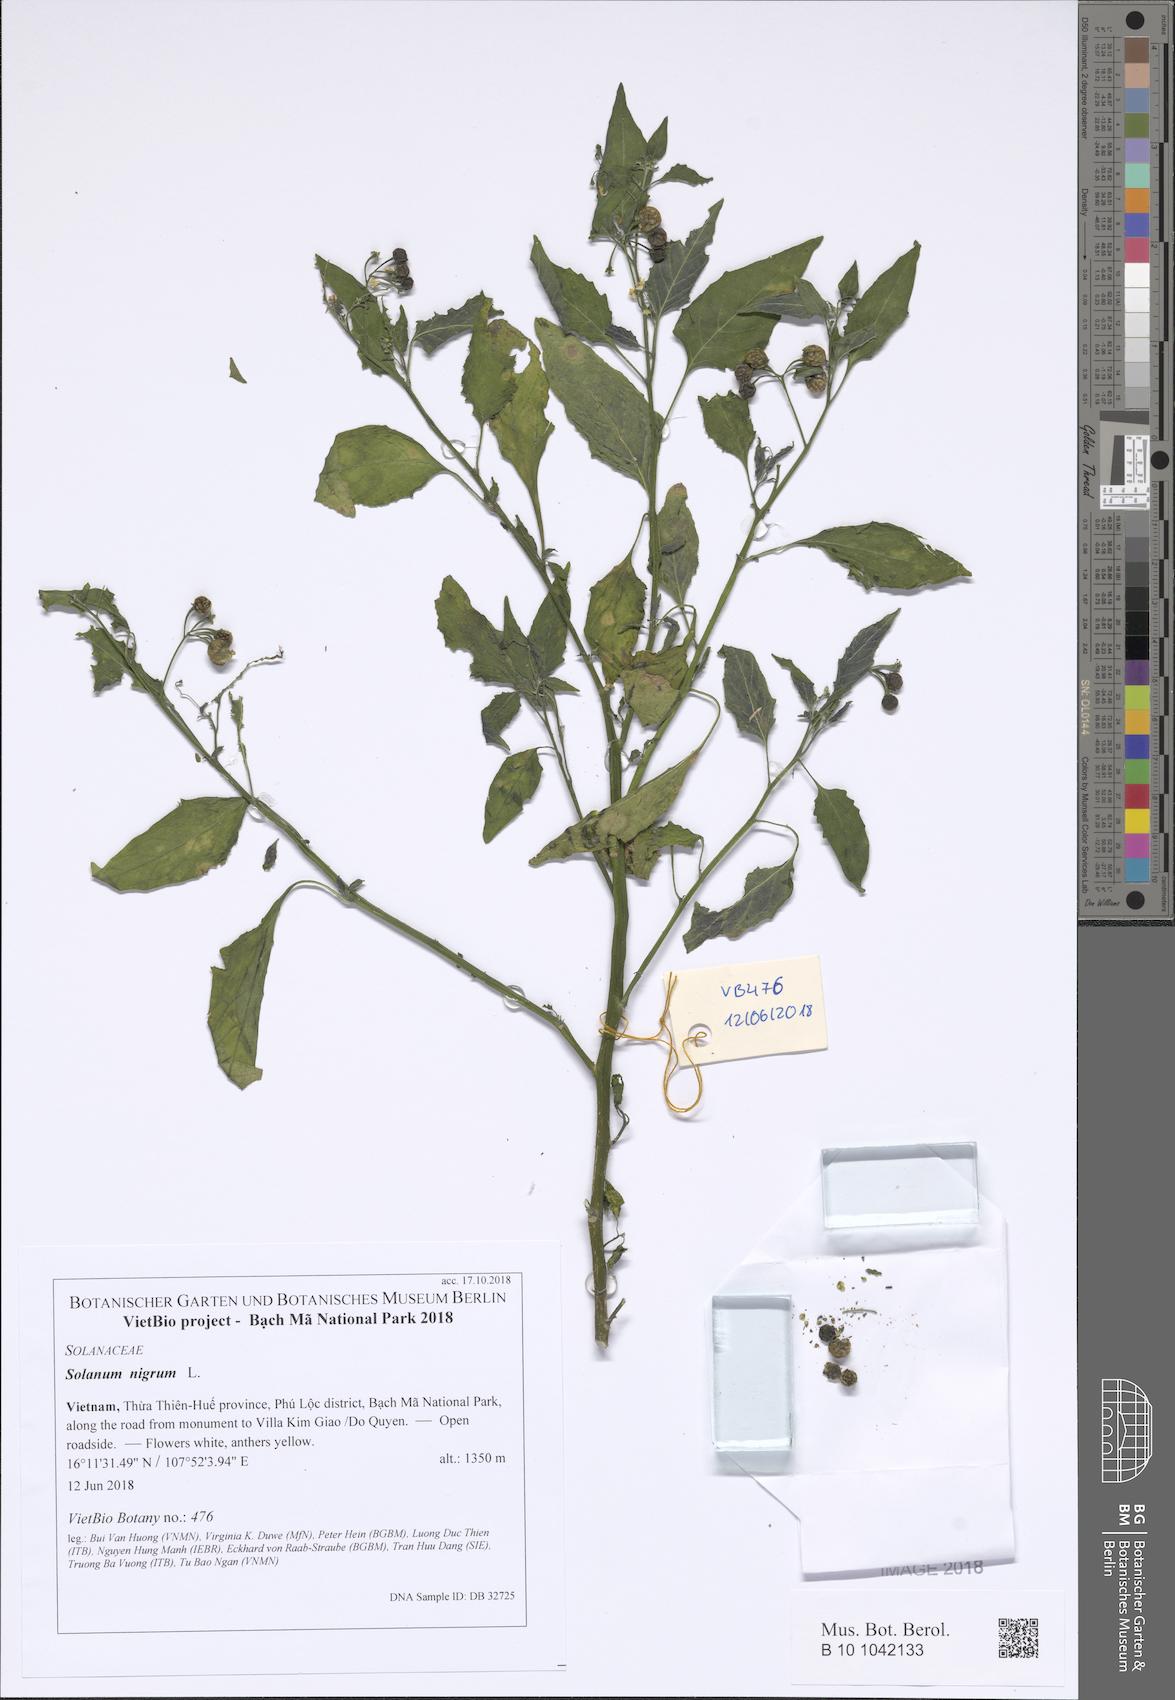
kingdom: Plantae
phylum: Tracheophyta
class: Magnoliopsida
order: Solanales
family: Solanaceae
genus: Solanum
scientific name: Solanum americanum
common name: American black nightshade
